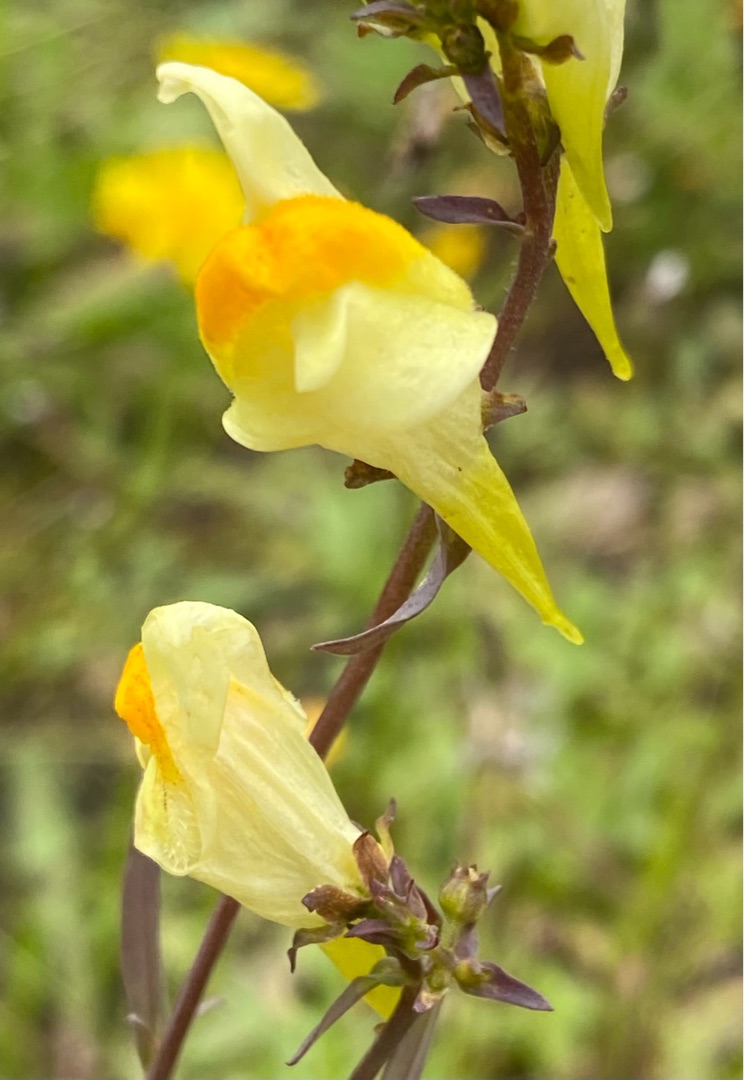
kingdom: Plantae
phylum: Tracheophyta
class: Magnoliopsida
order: Lamiales
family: Plantaginaceae
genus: Linaria
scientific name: Linaria vulgaris
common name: Almindelig torskemund
